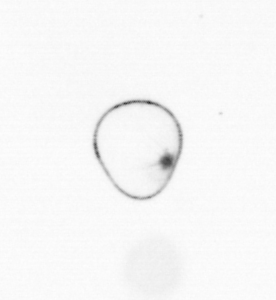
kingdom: Chromista
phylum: Myzozoa
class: Dinophyceae
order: Noctilucales
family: Noctilucaceae
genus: Noctiluca
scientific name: Noctiluca scintillans
